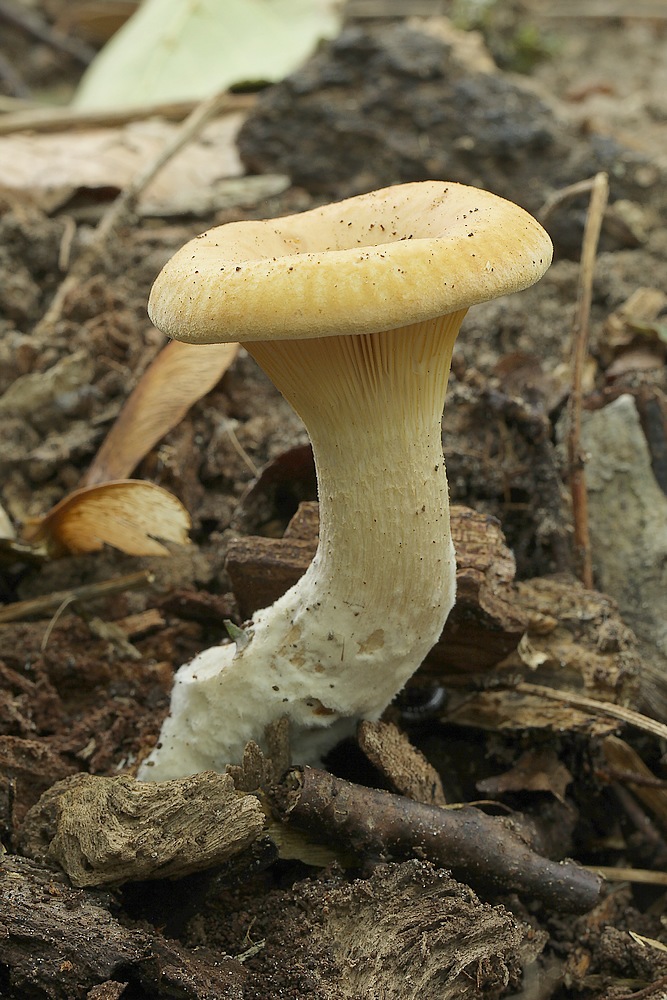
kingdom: Fungi
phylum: Basidiomycota
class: Agaricomycetes
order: Agaricales
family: Tricholomataceae
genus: Paralepista
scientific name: Paralepista gilva
